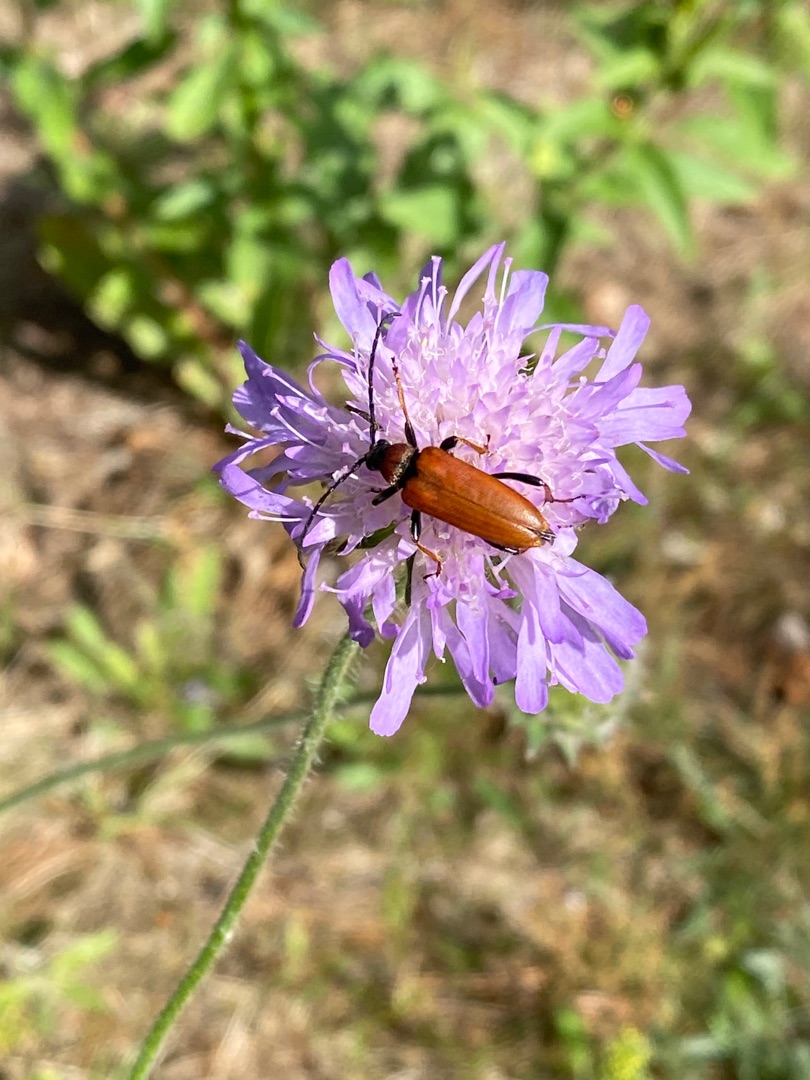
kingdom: Animalia
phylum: Arthropoda
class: Insecta
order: Coleoptera
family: Cerambycidae
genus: Stictoleptura
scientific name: Stictoleptura rubra
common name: Rød blomsterbuk
